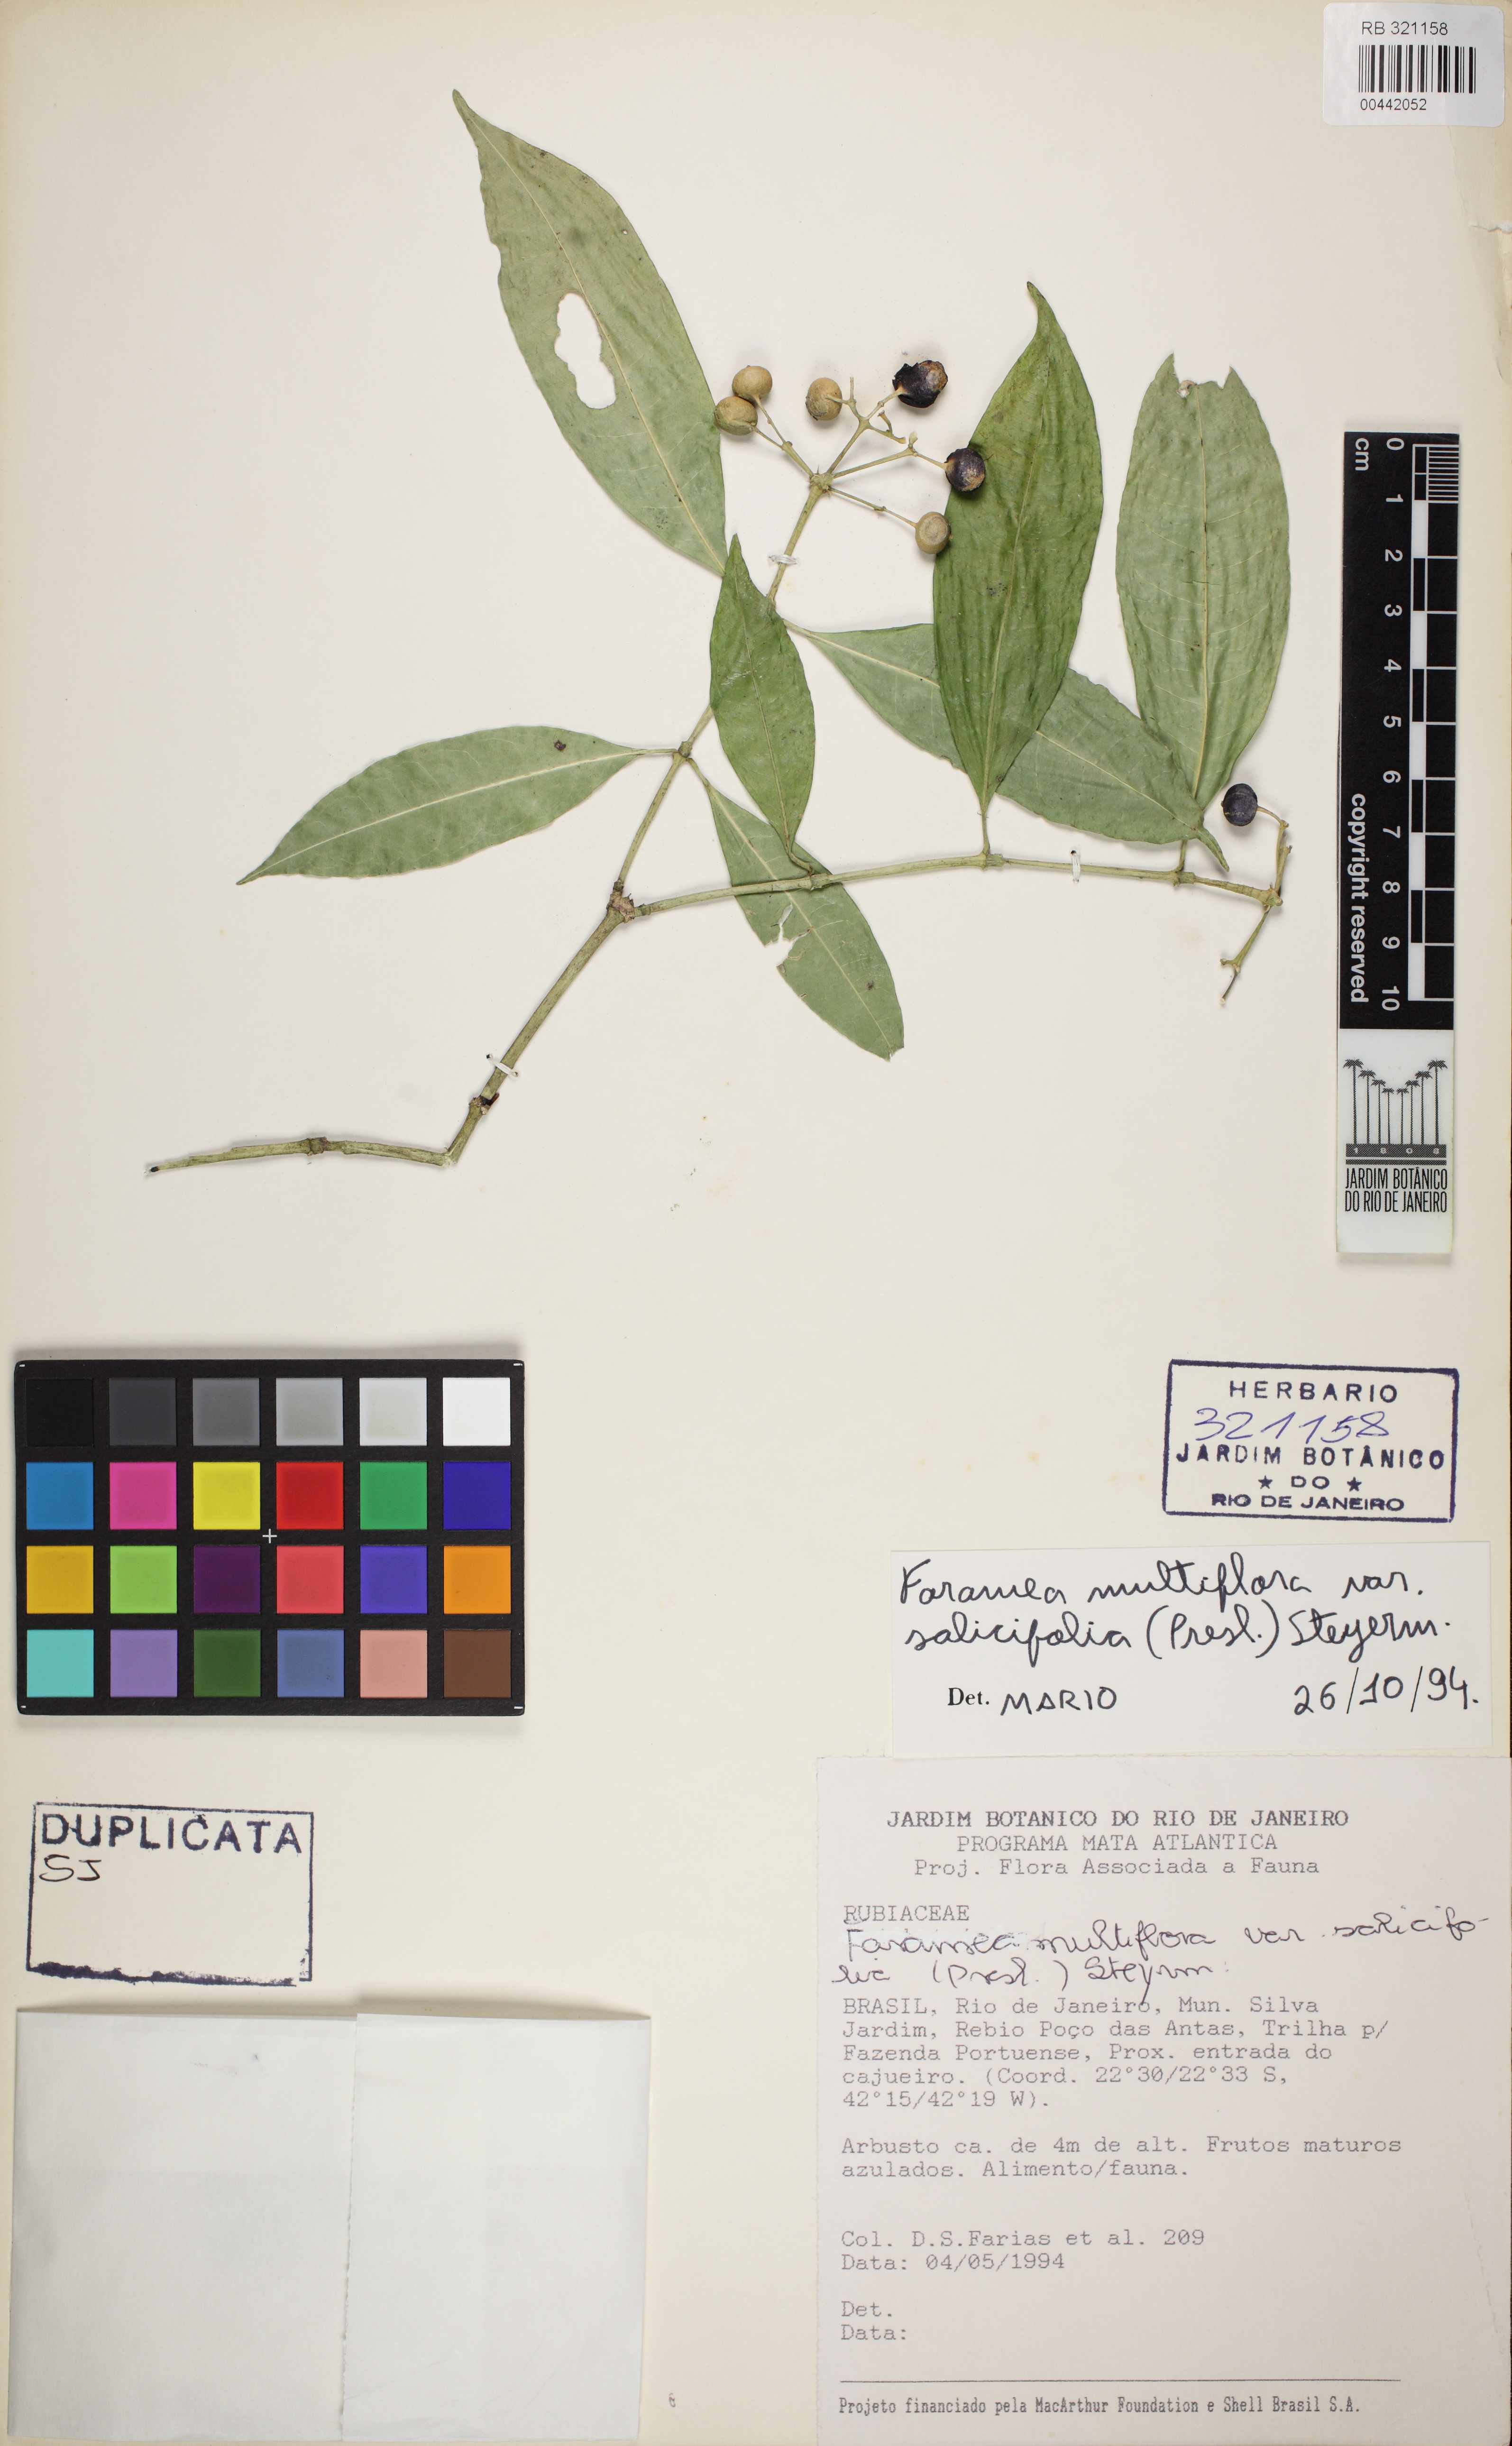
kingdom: Plantae
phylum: Tracheophyta
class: Magnoliopsida
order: Gentianales
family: Rubiaceae
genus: Faramea
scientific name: Faramea multiflora
